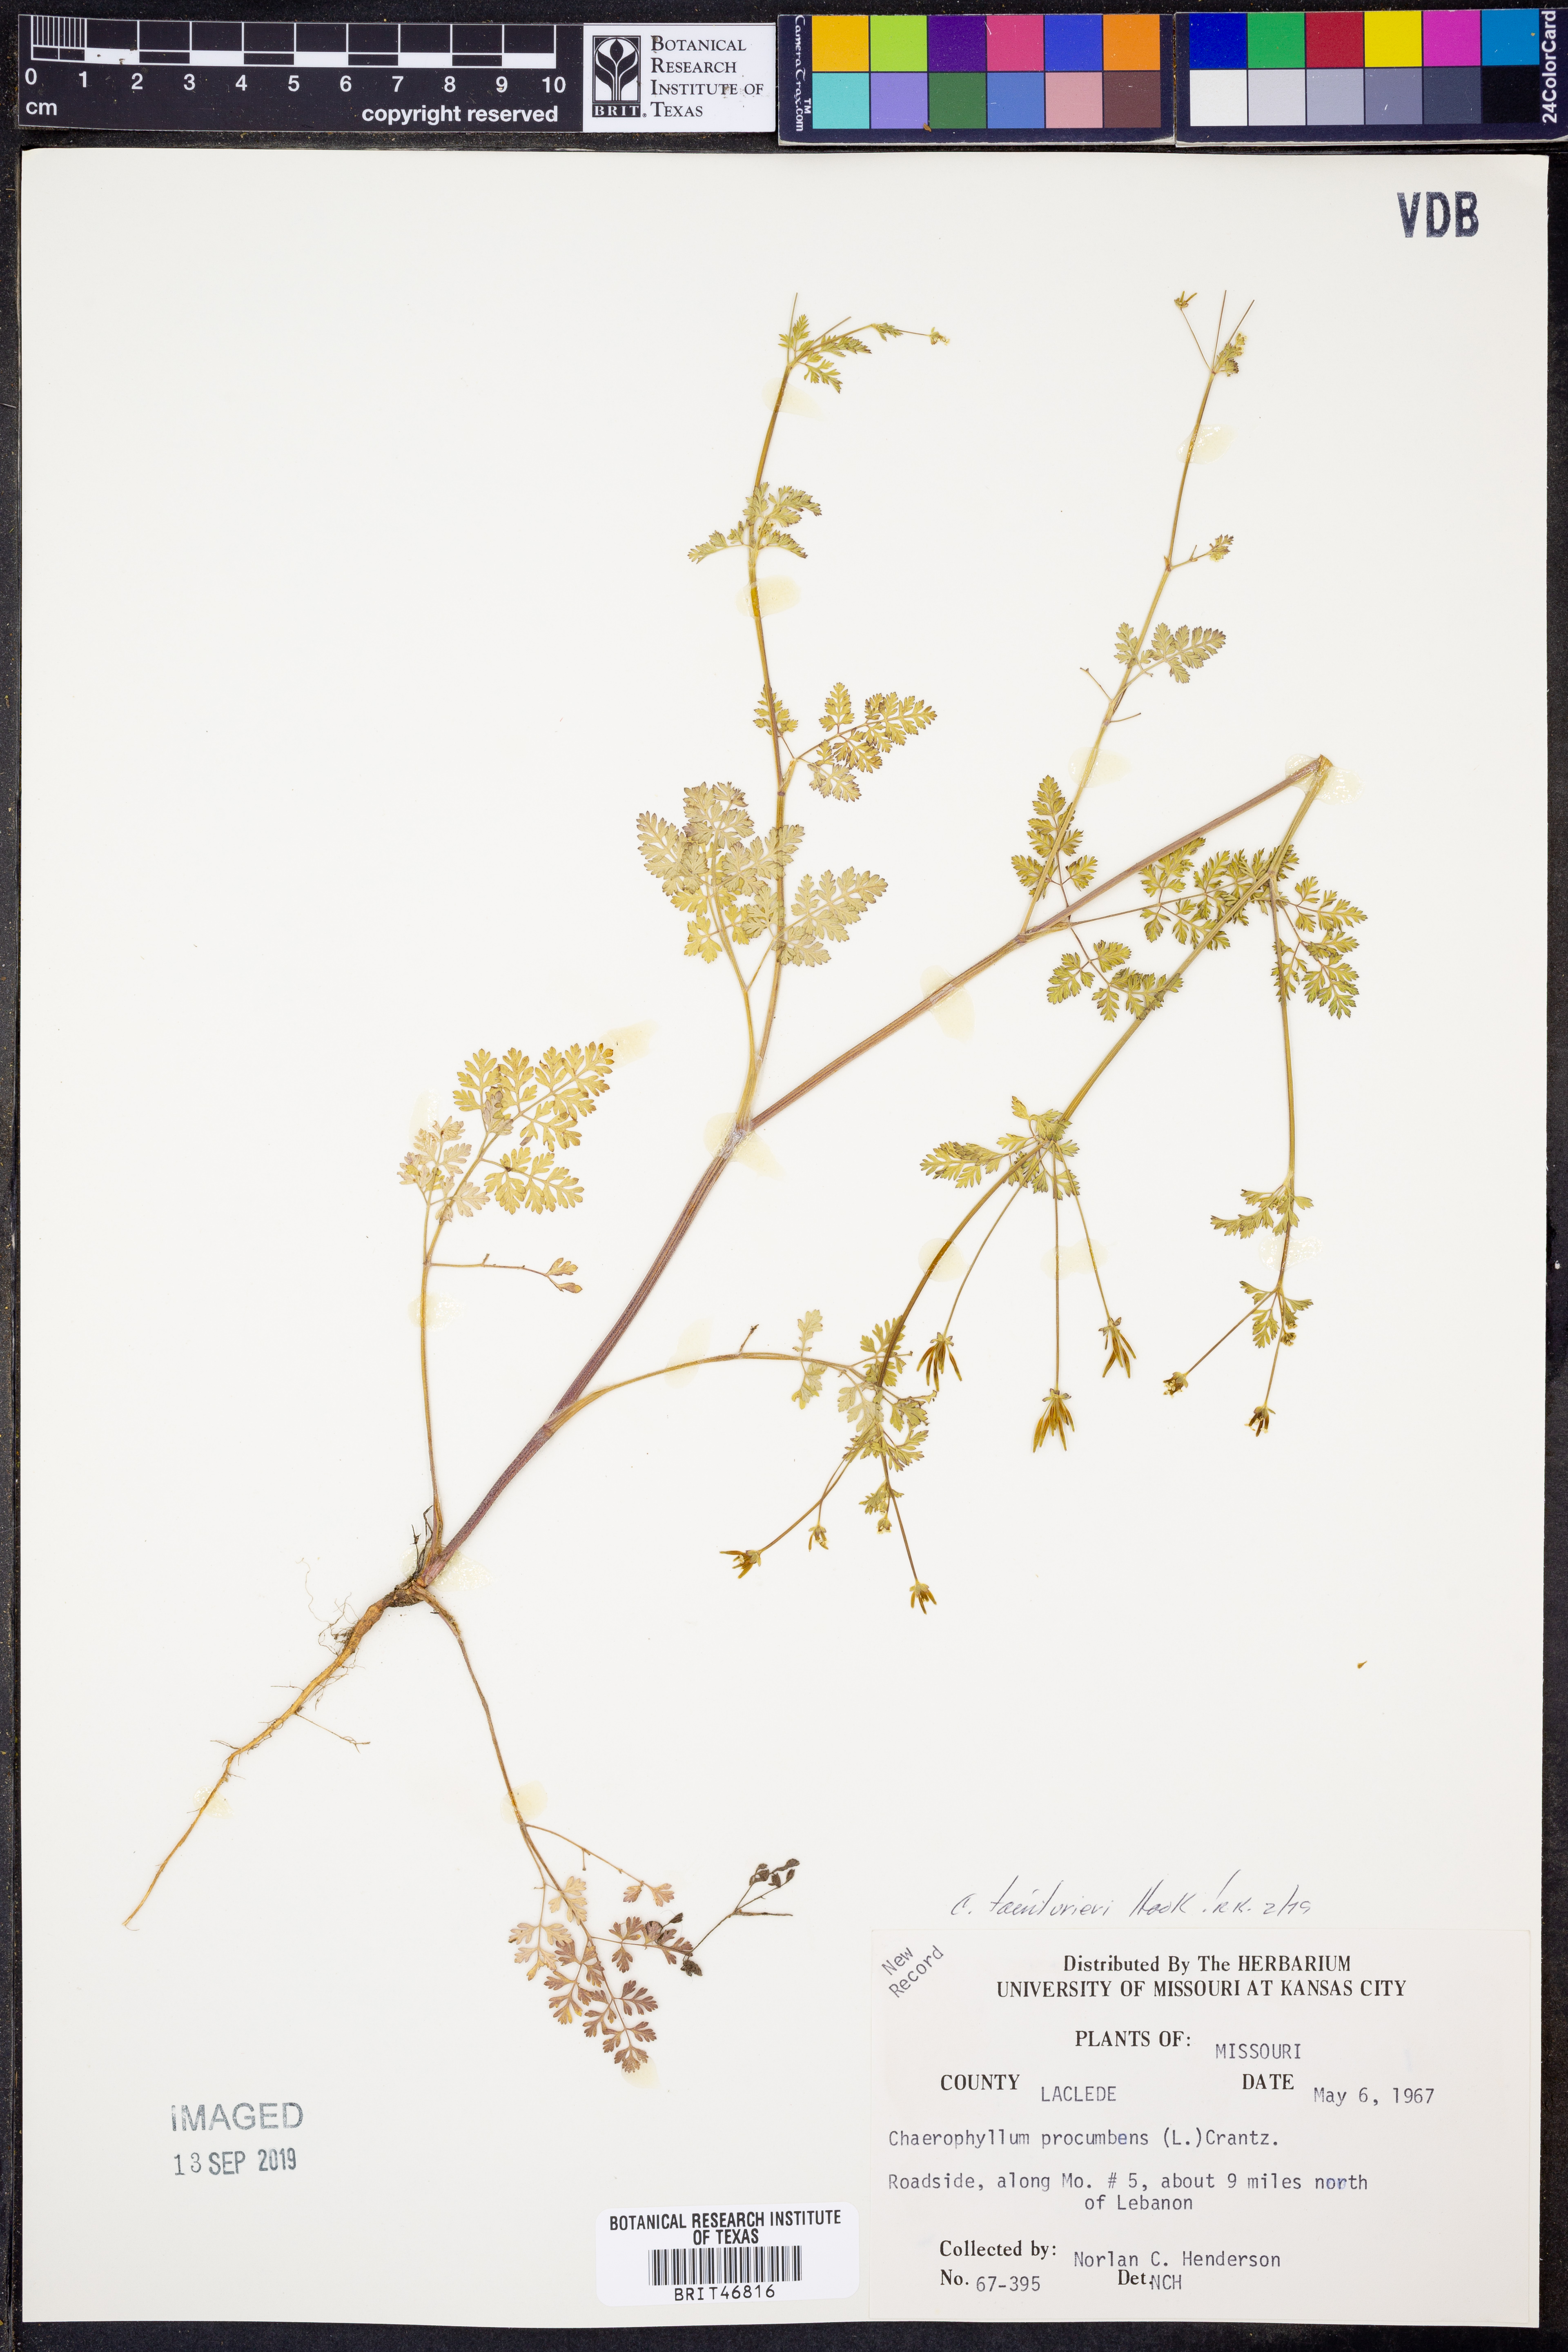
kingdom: Plantae
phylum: Tracheophyta
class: Magnoliopsida
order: Apiales
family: Apiaceae
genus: Chaerophyllum
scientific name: Chaerophyllum tainturieri
